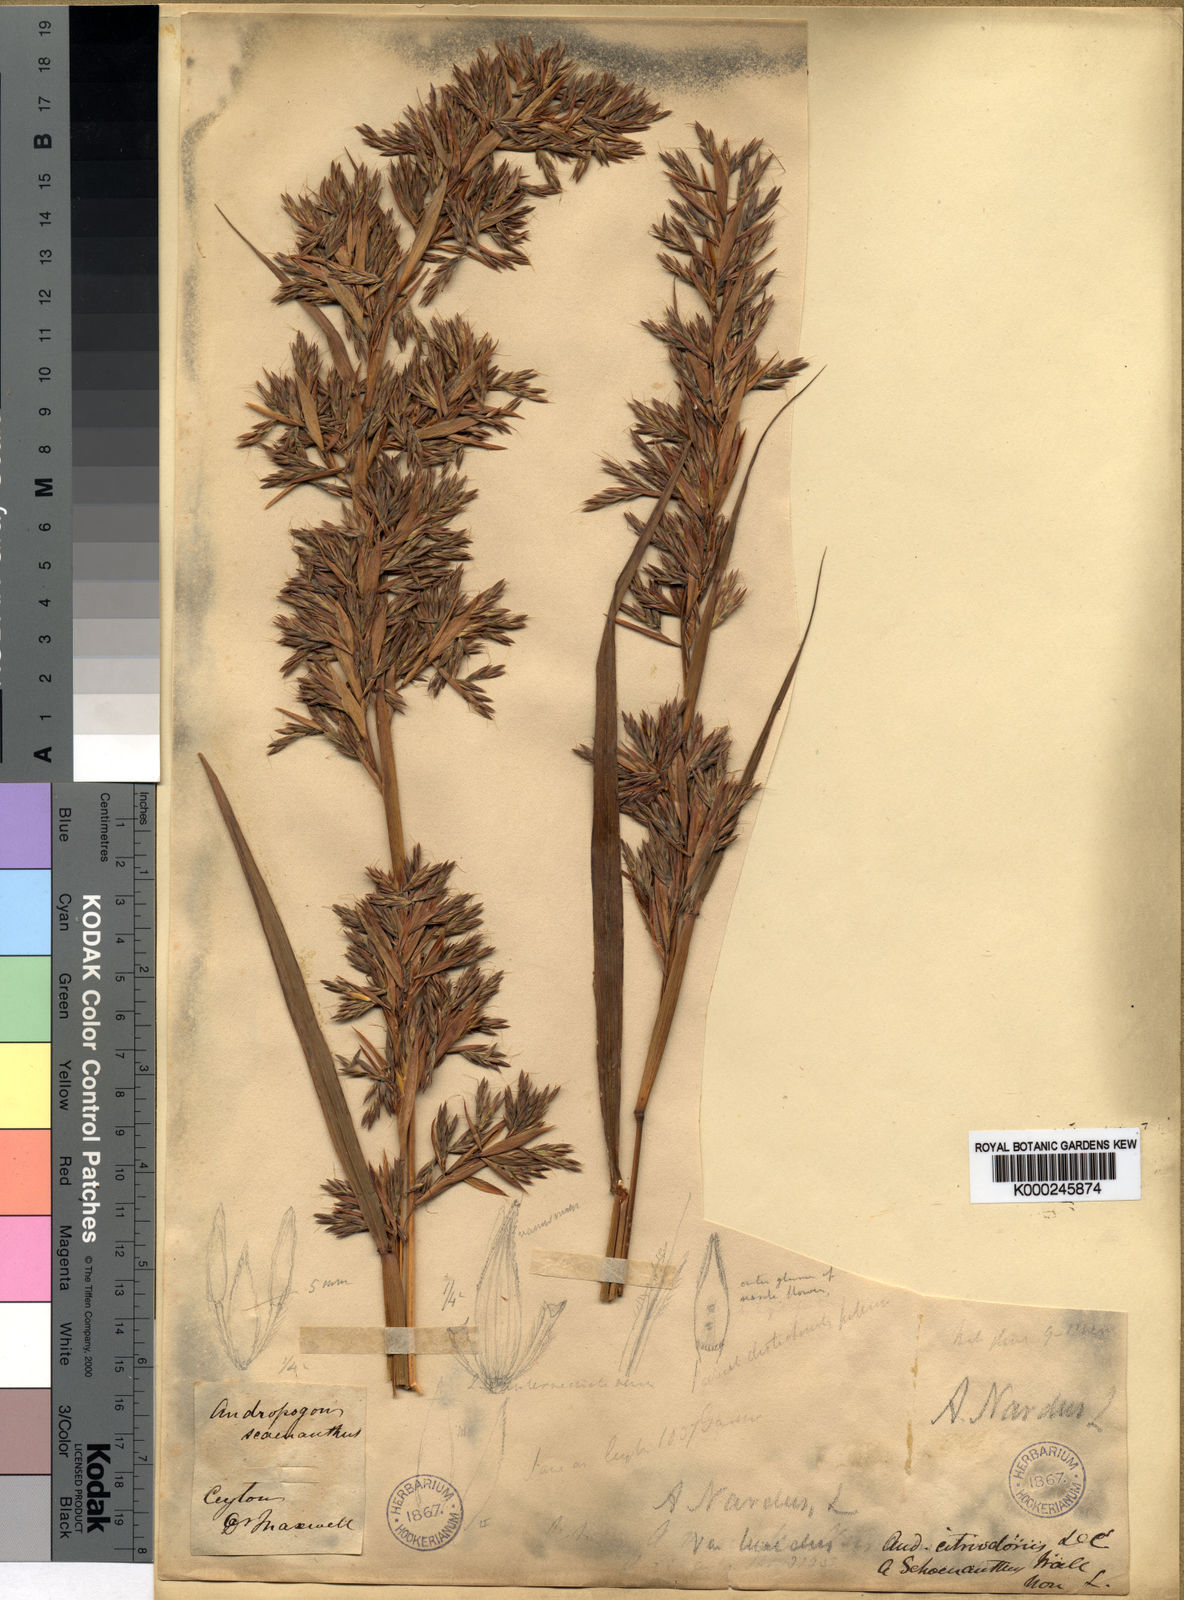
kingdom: Plantae
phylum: Tracheophyta
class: Liliopsida
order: Poales
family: Poaceae
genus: Cymbopogon
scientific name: Cymbopogon nardus
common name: Giant turpentine grass
